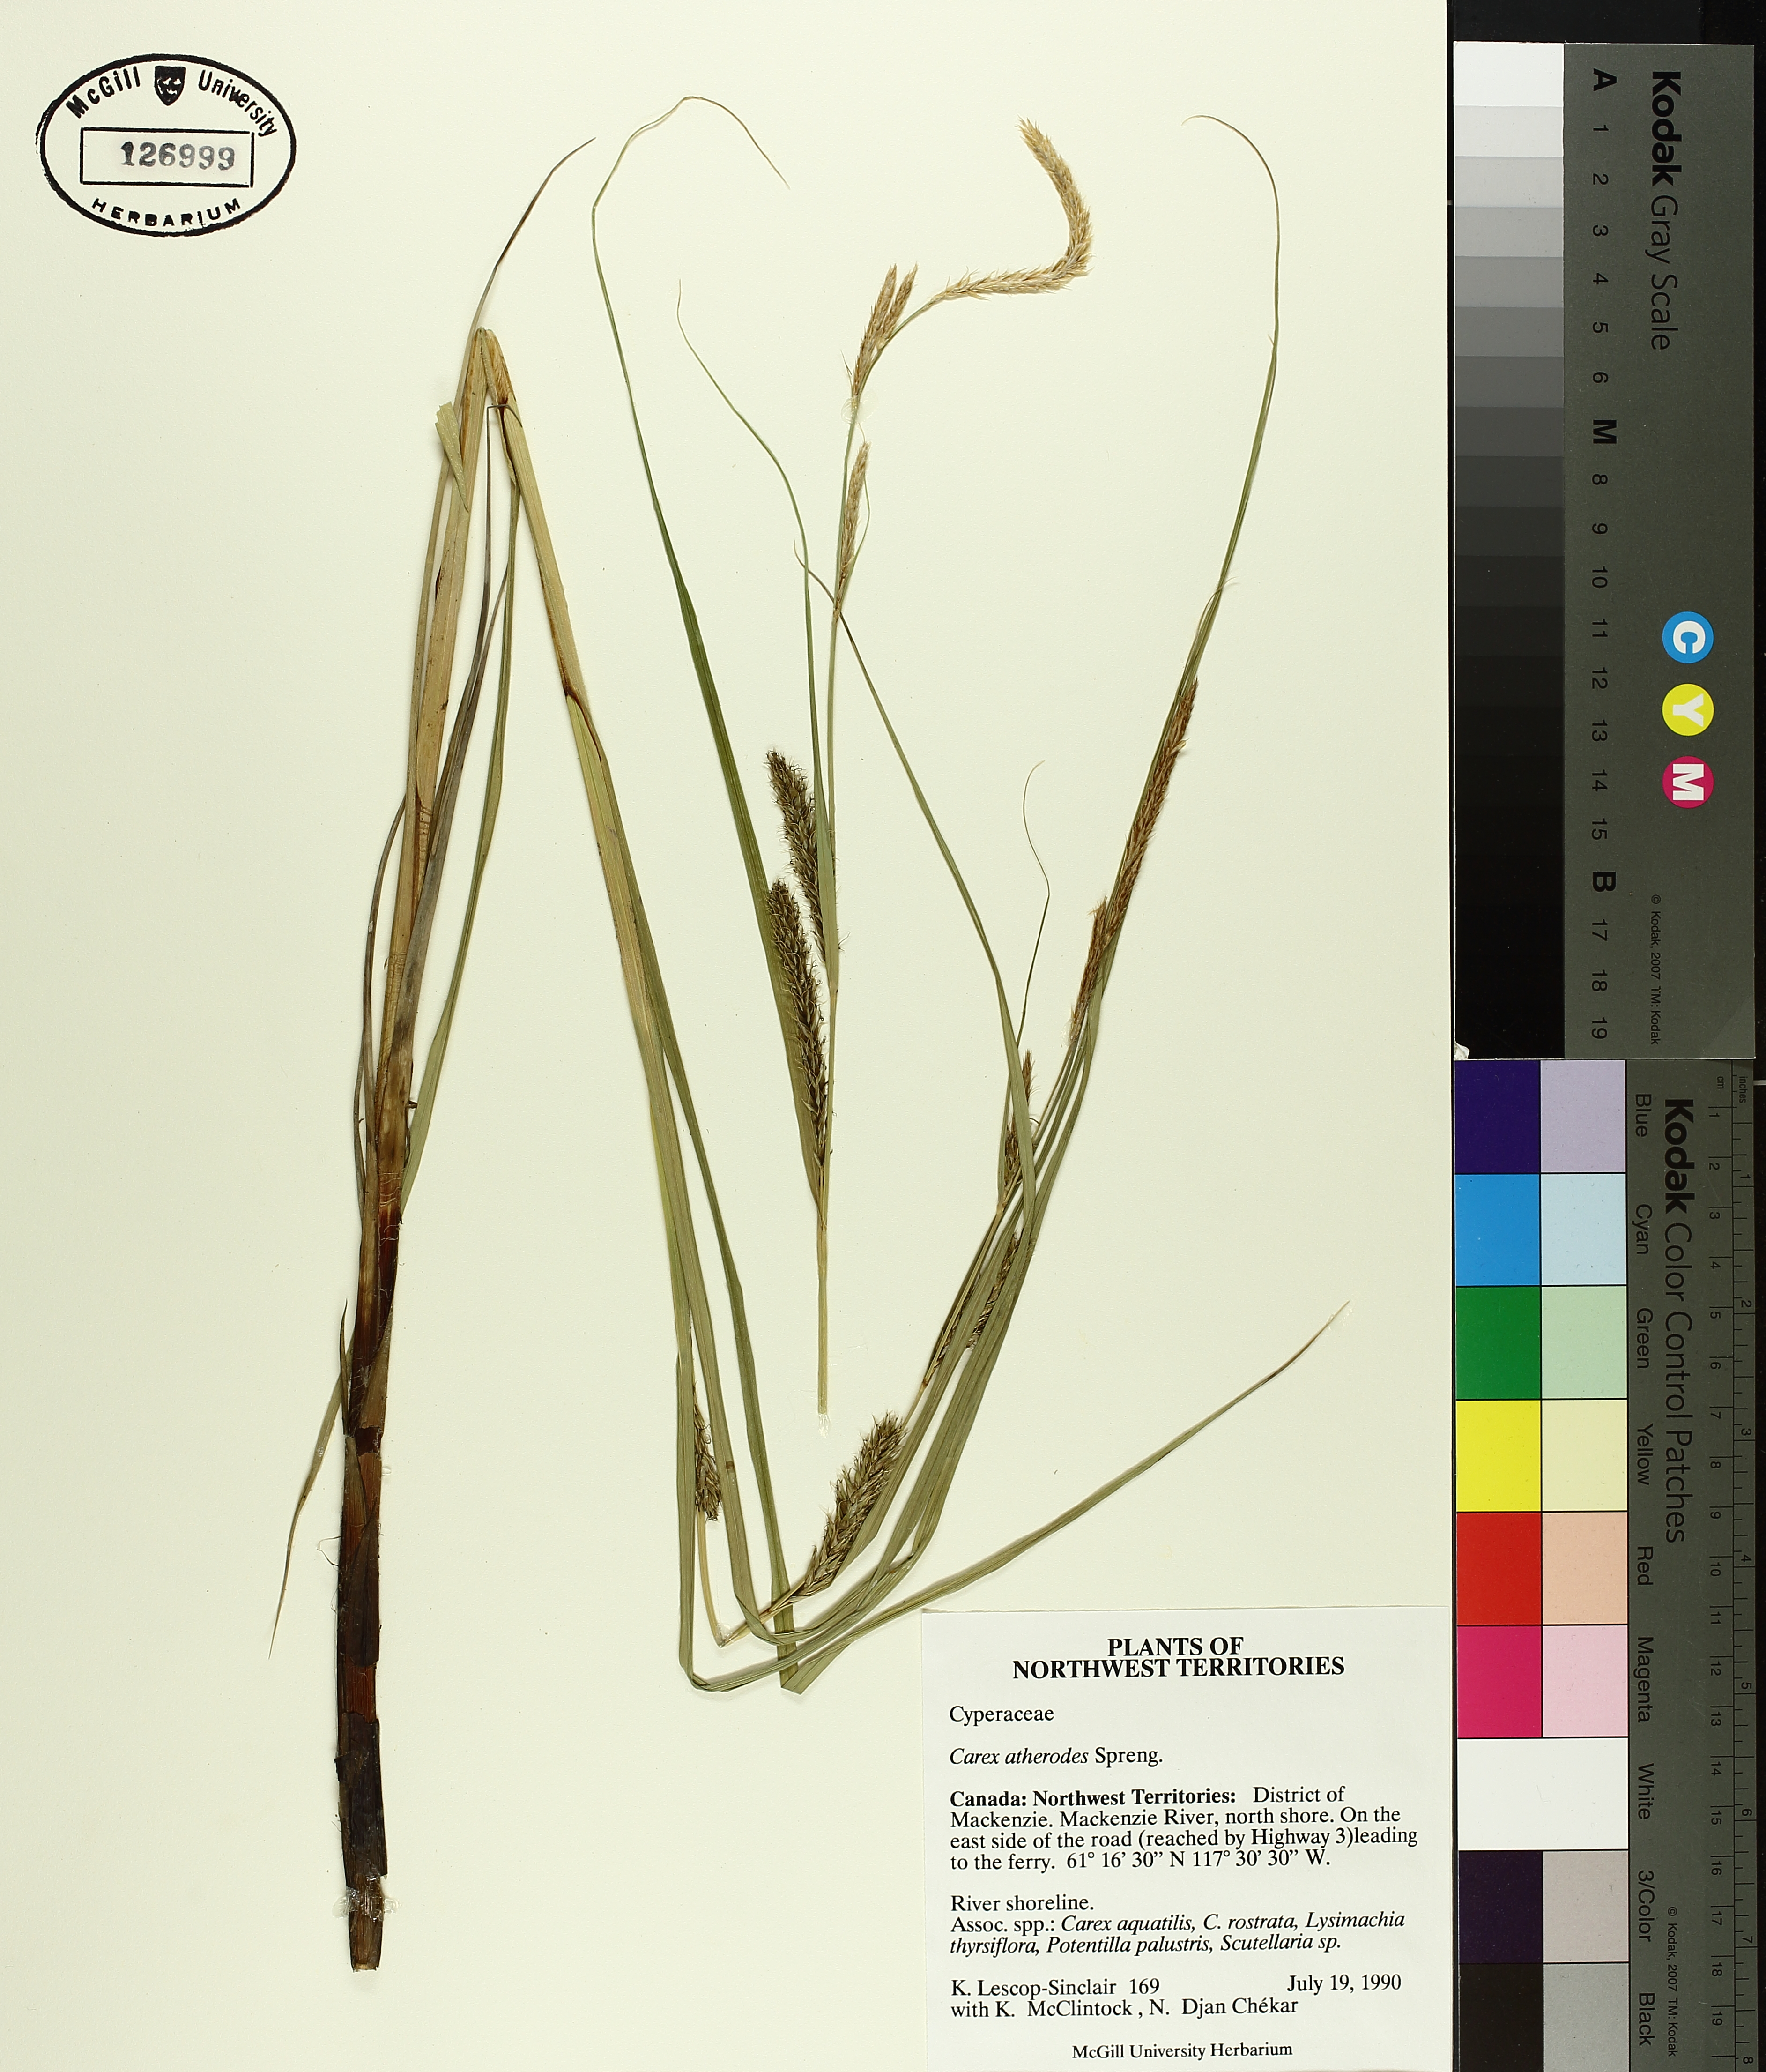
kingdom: Plantae
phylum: Tracheophyta
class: Liliopsida
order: Poales
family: Cyperaceae
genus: Carex
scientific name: Carex atherodes
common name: Wheat sedge
